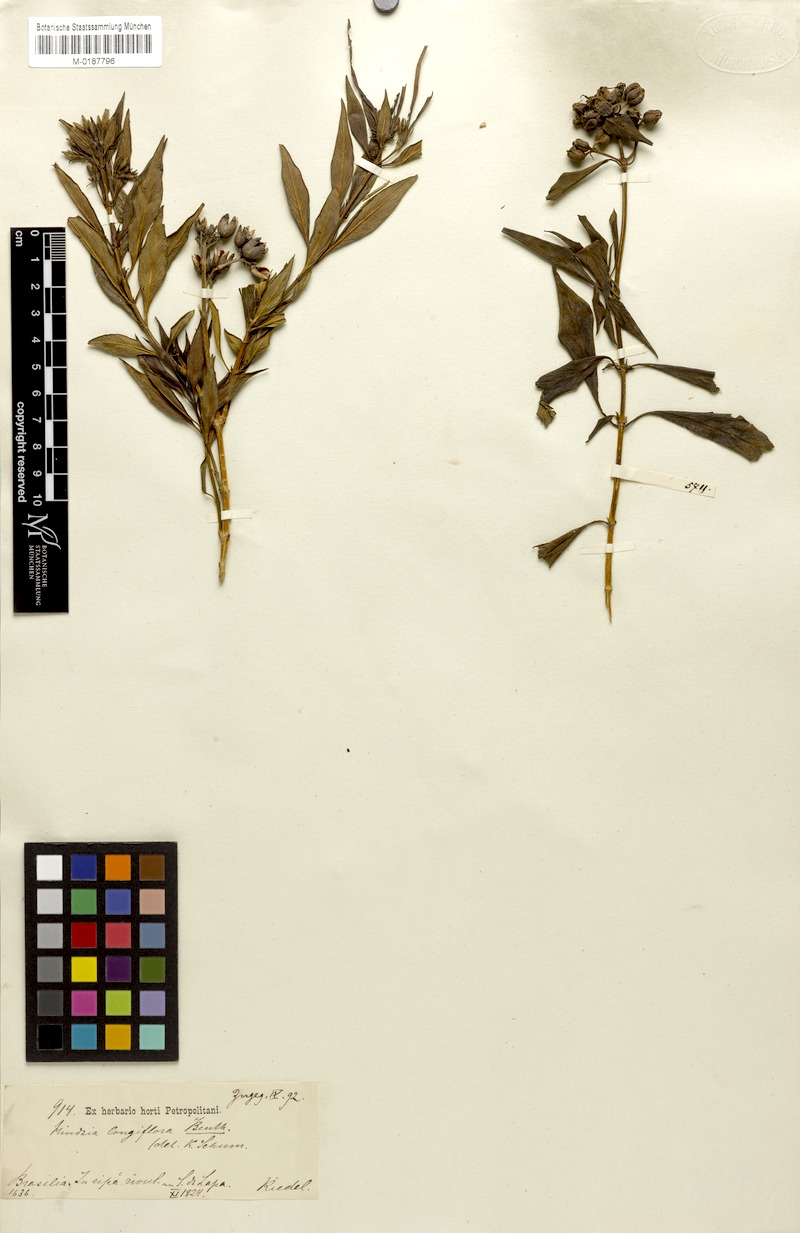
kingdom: Plantae
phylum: Tracheophyta
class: Magnoliopsida
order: Gentianales
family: Rubiaceae
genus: Hindsia
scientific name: Hindsia longiflora
